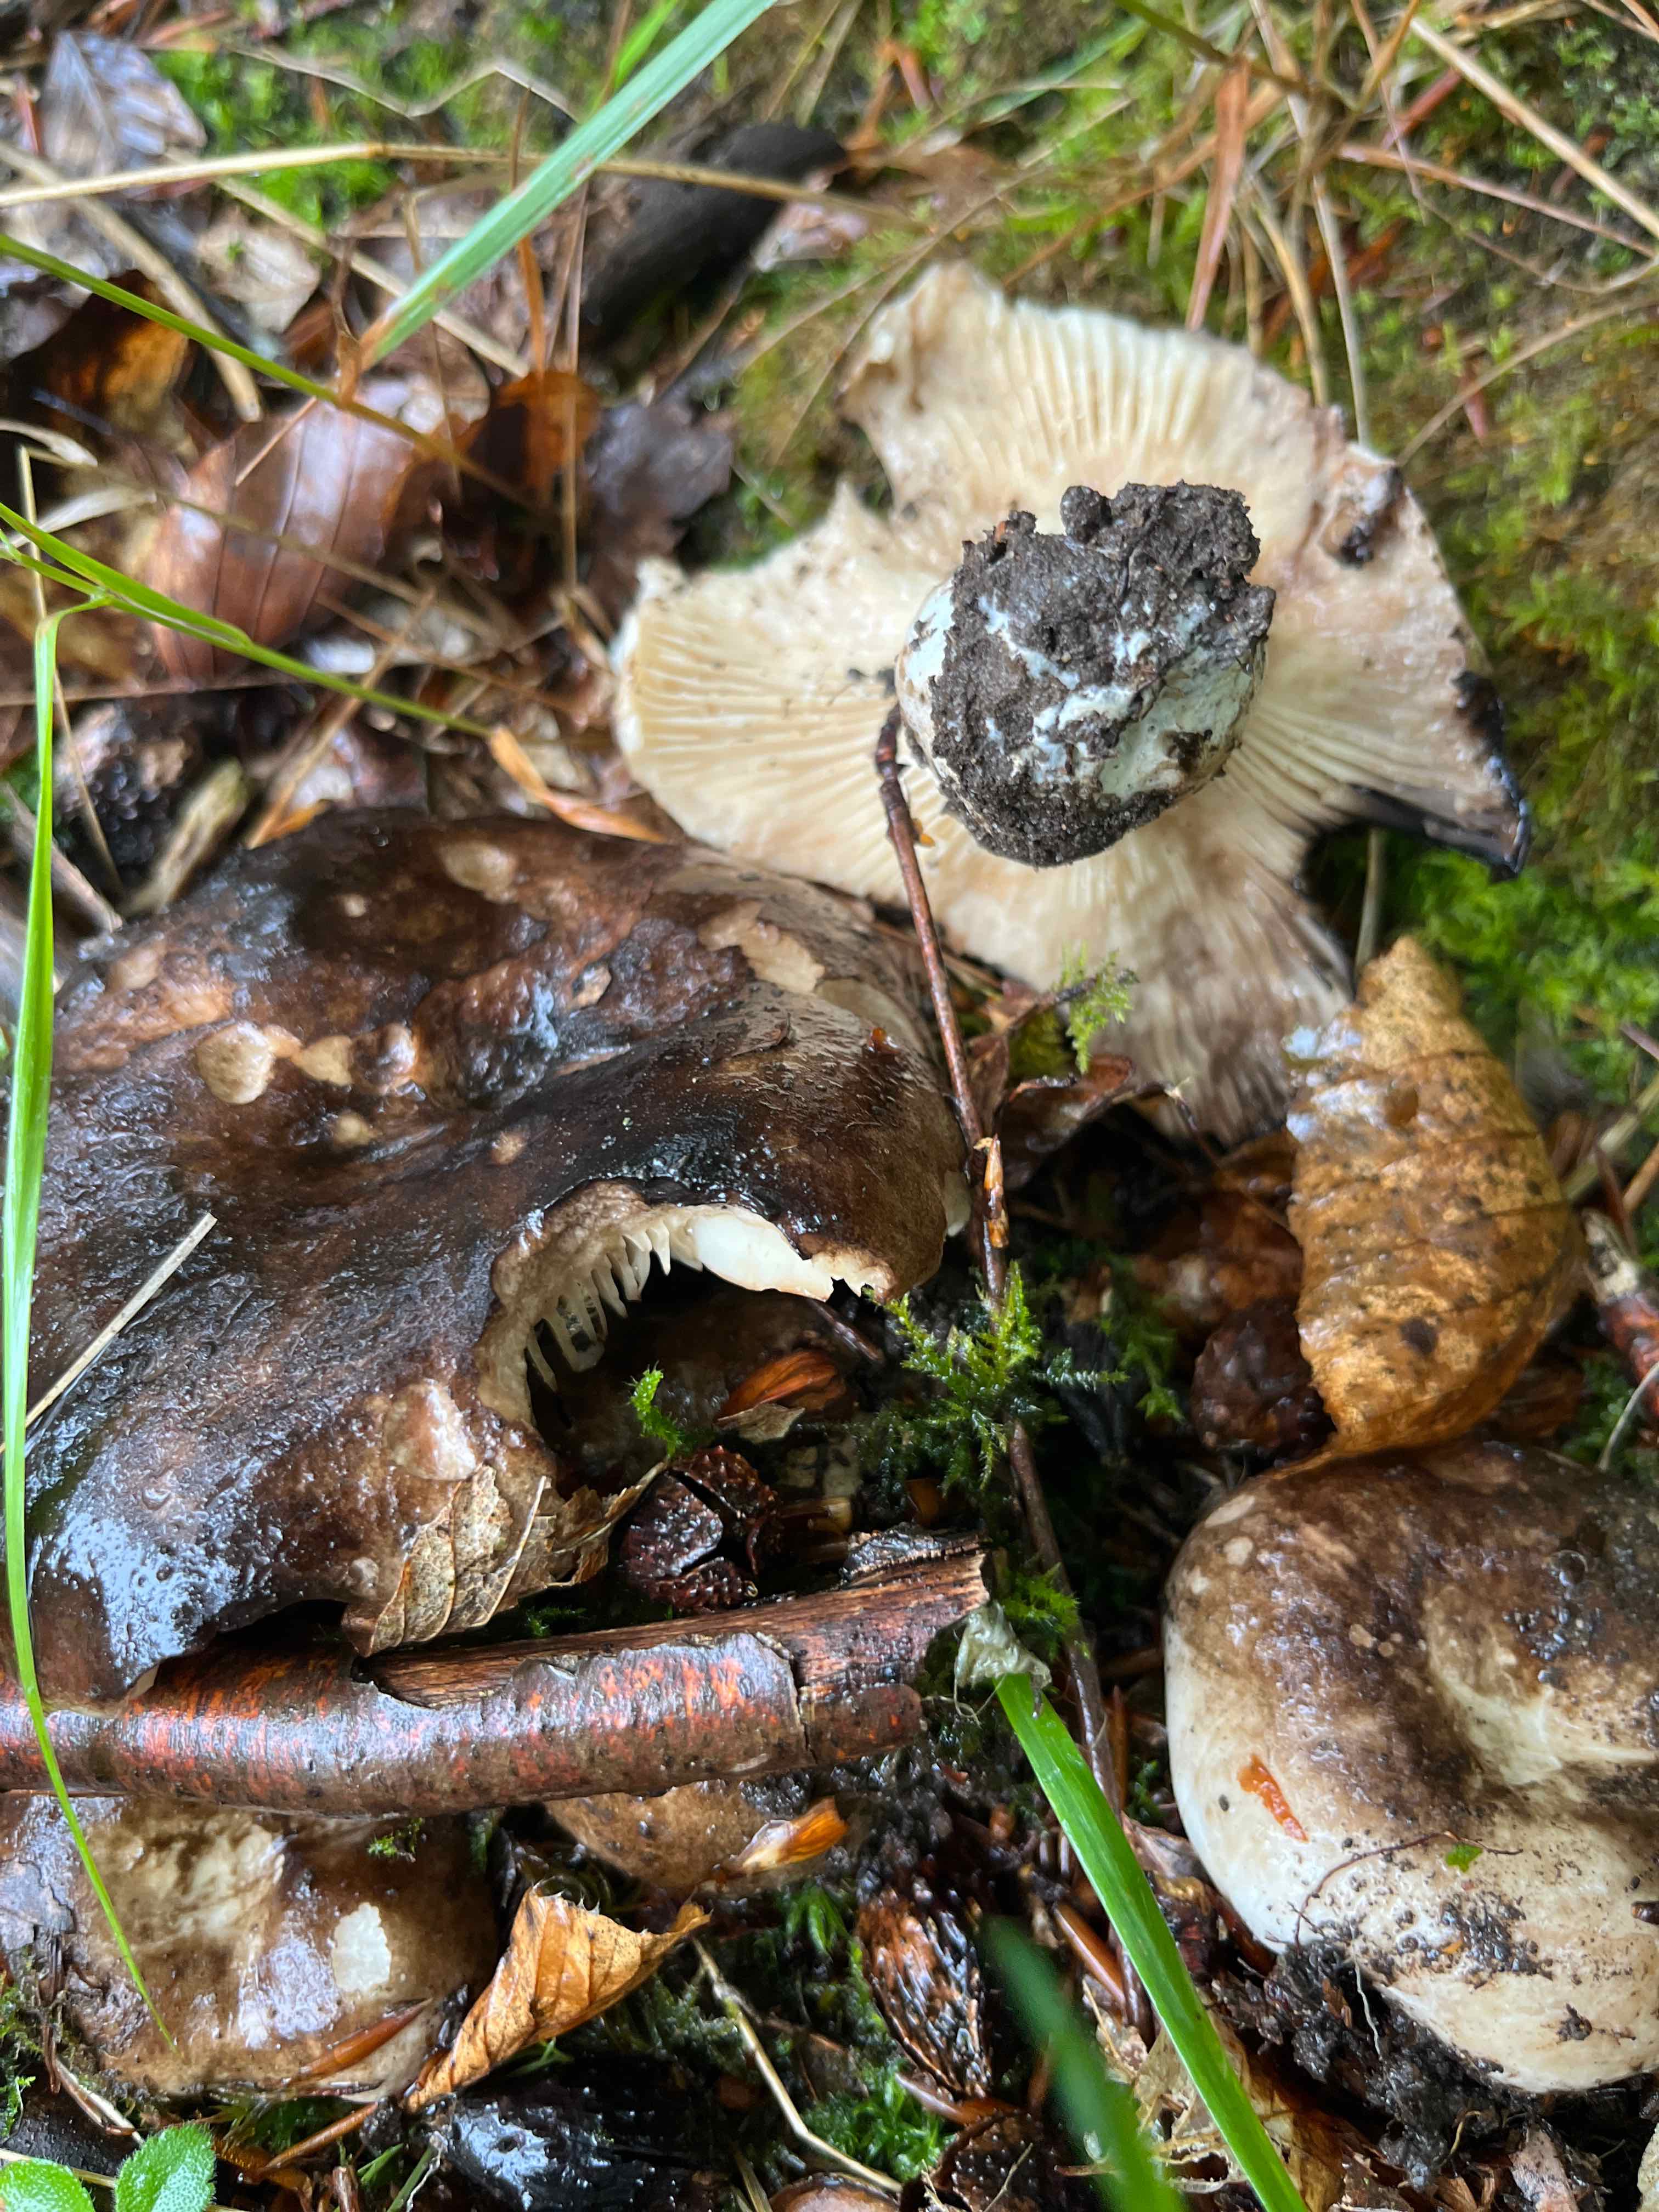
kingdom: Fungi
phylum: Basidiomycota
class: Agaricomycetes
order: Russulales
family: Russulaceae
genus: Russula
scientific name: Russula adusta
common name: sværtende skørhat
